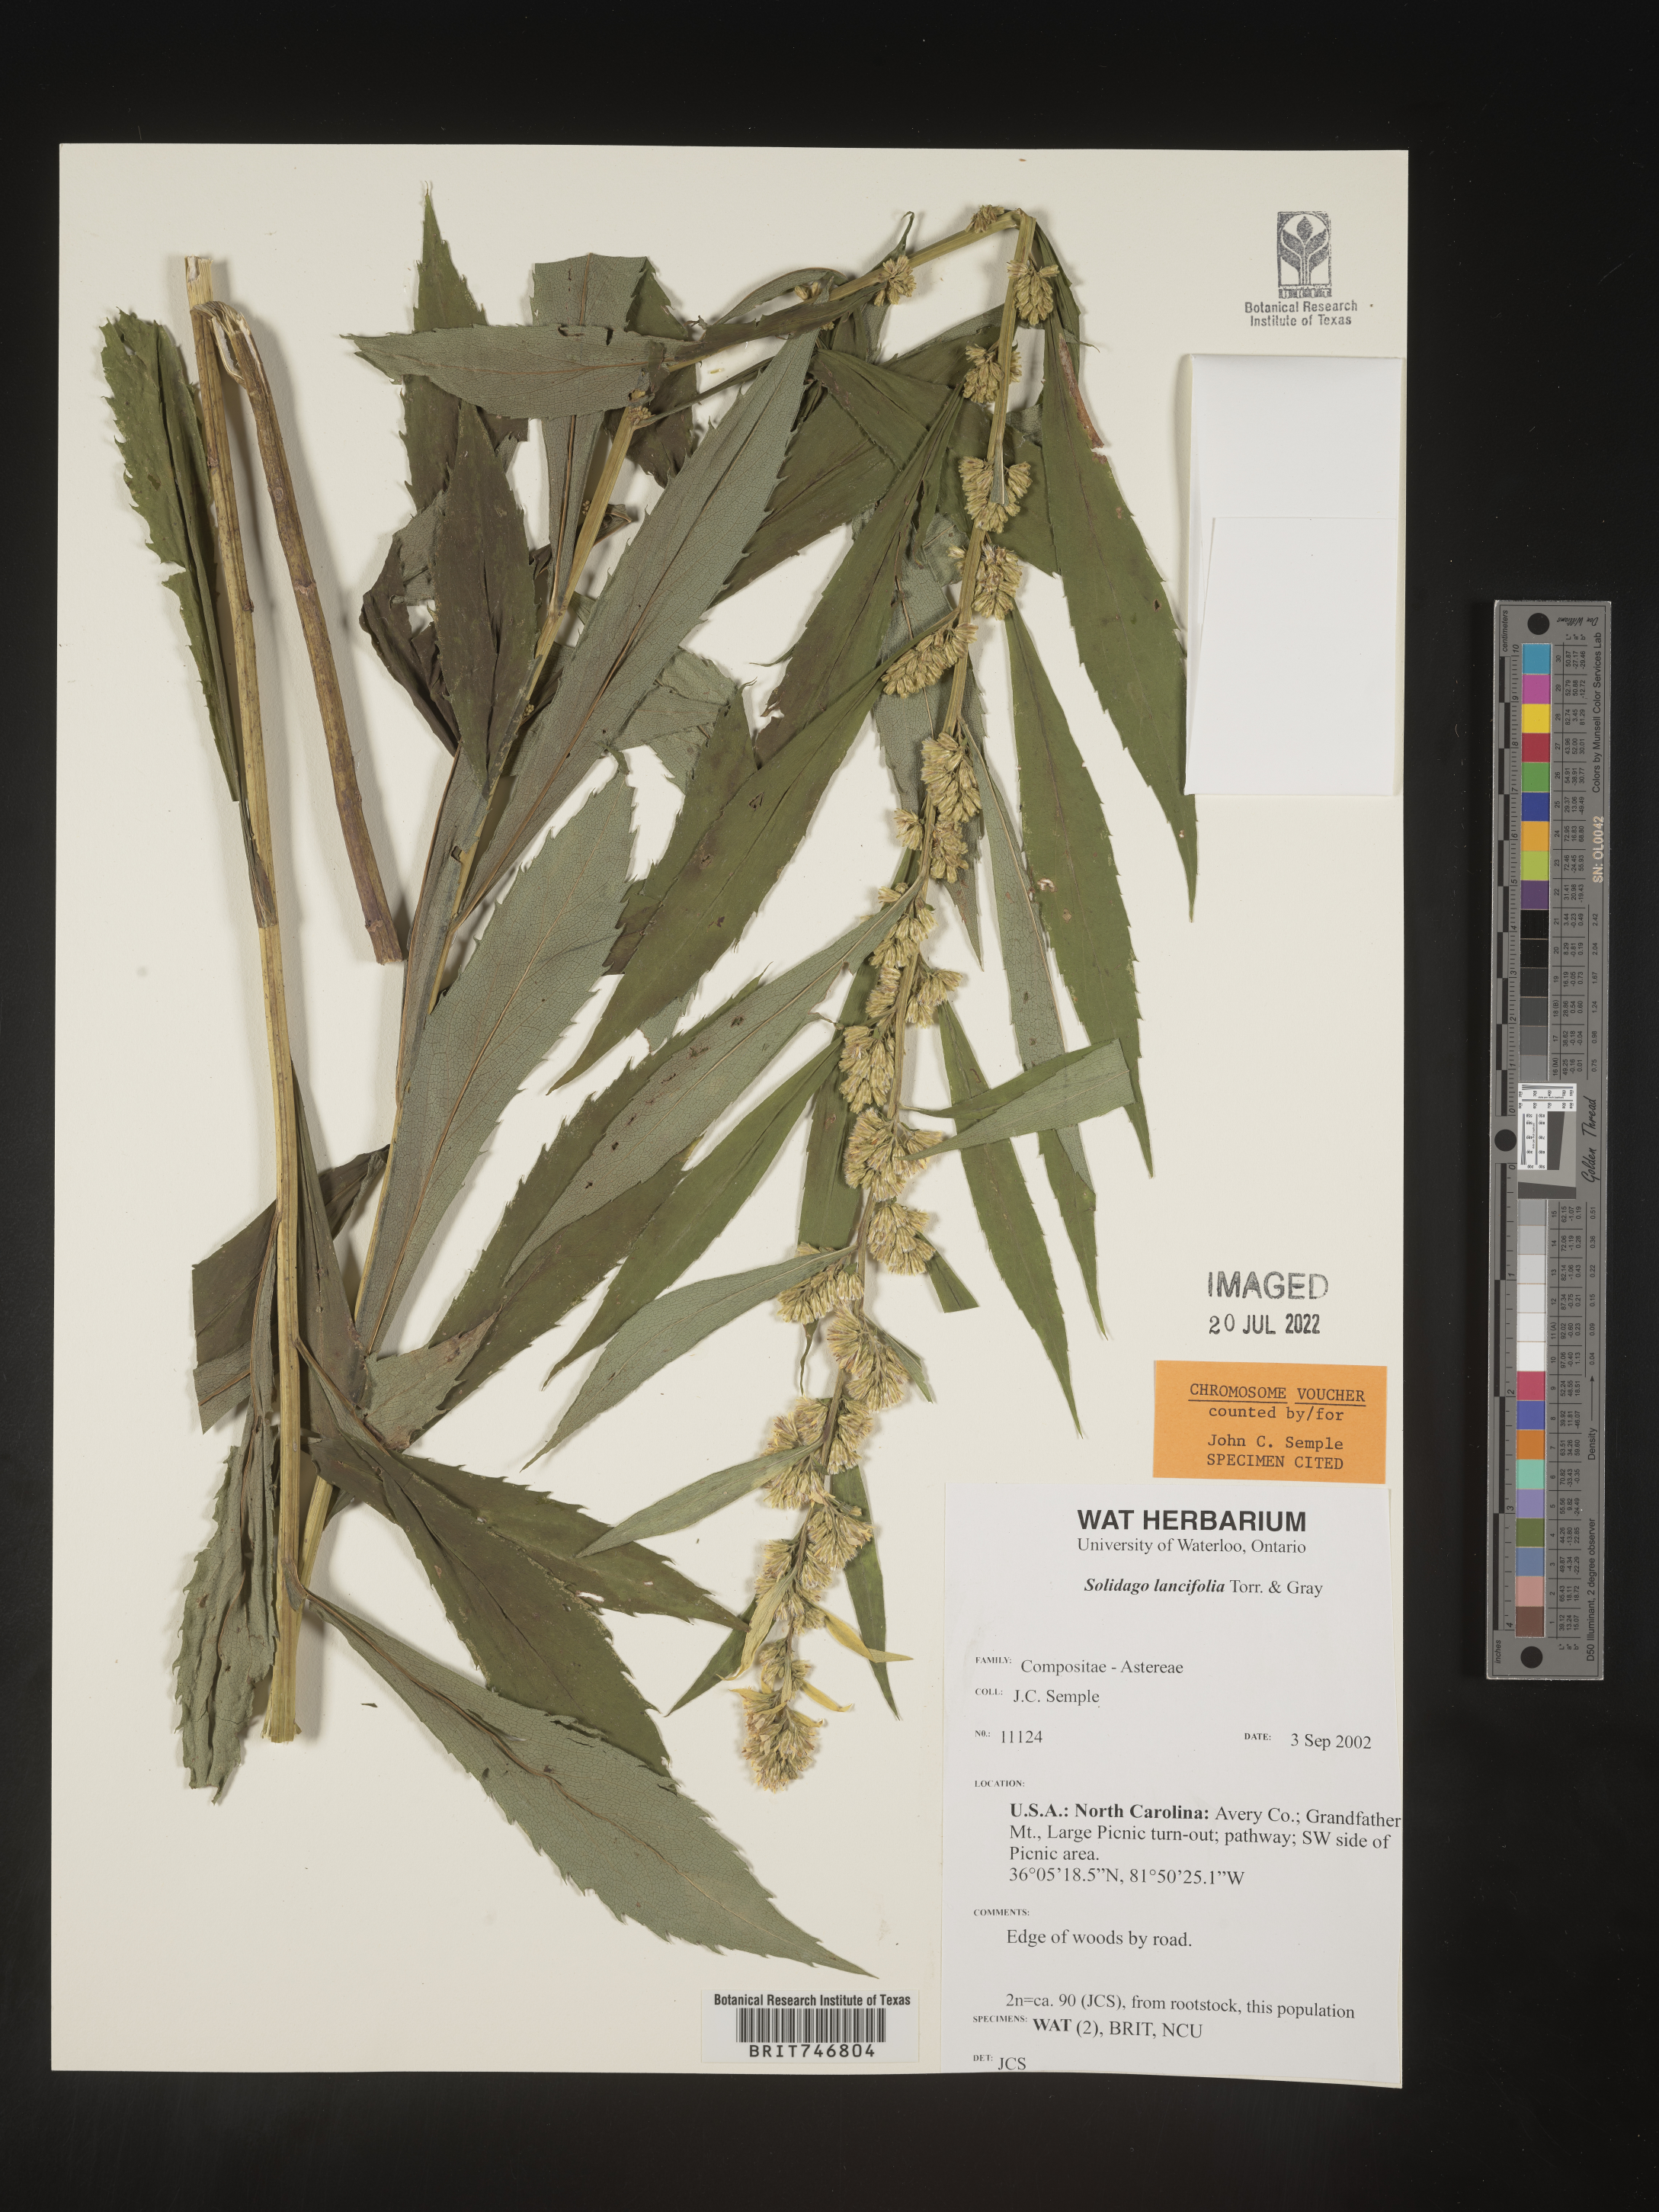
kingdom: Plantae
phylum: Tracheophyta
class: Magnoliopsida
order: Asterales
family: Asteraceae
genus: Solidago
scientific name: Solidago lancifolia
